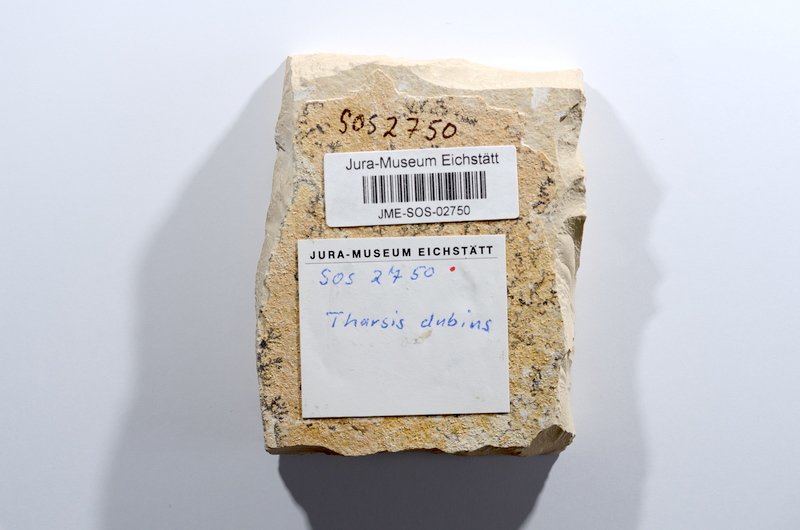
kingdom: Animalia
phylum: Chordata
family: Ascalaboidae
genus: Tharsis
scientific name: Tharsis dubius
